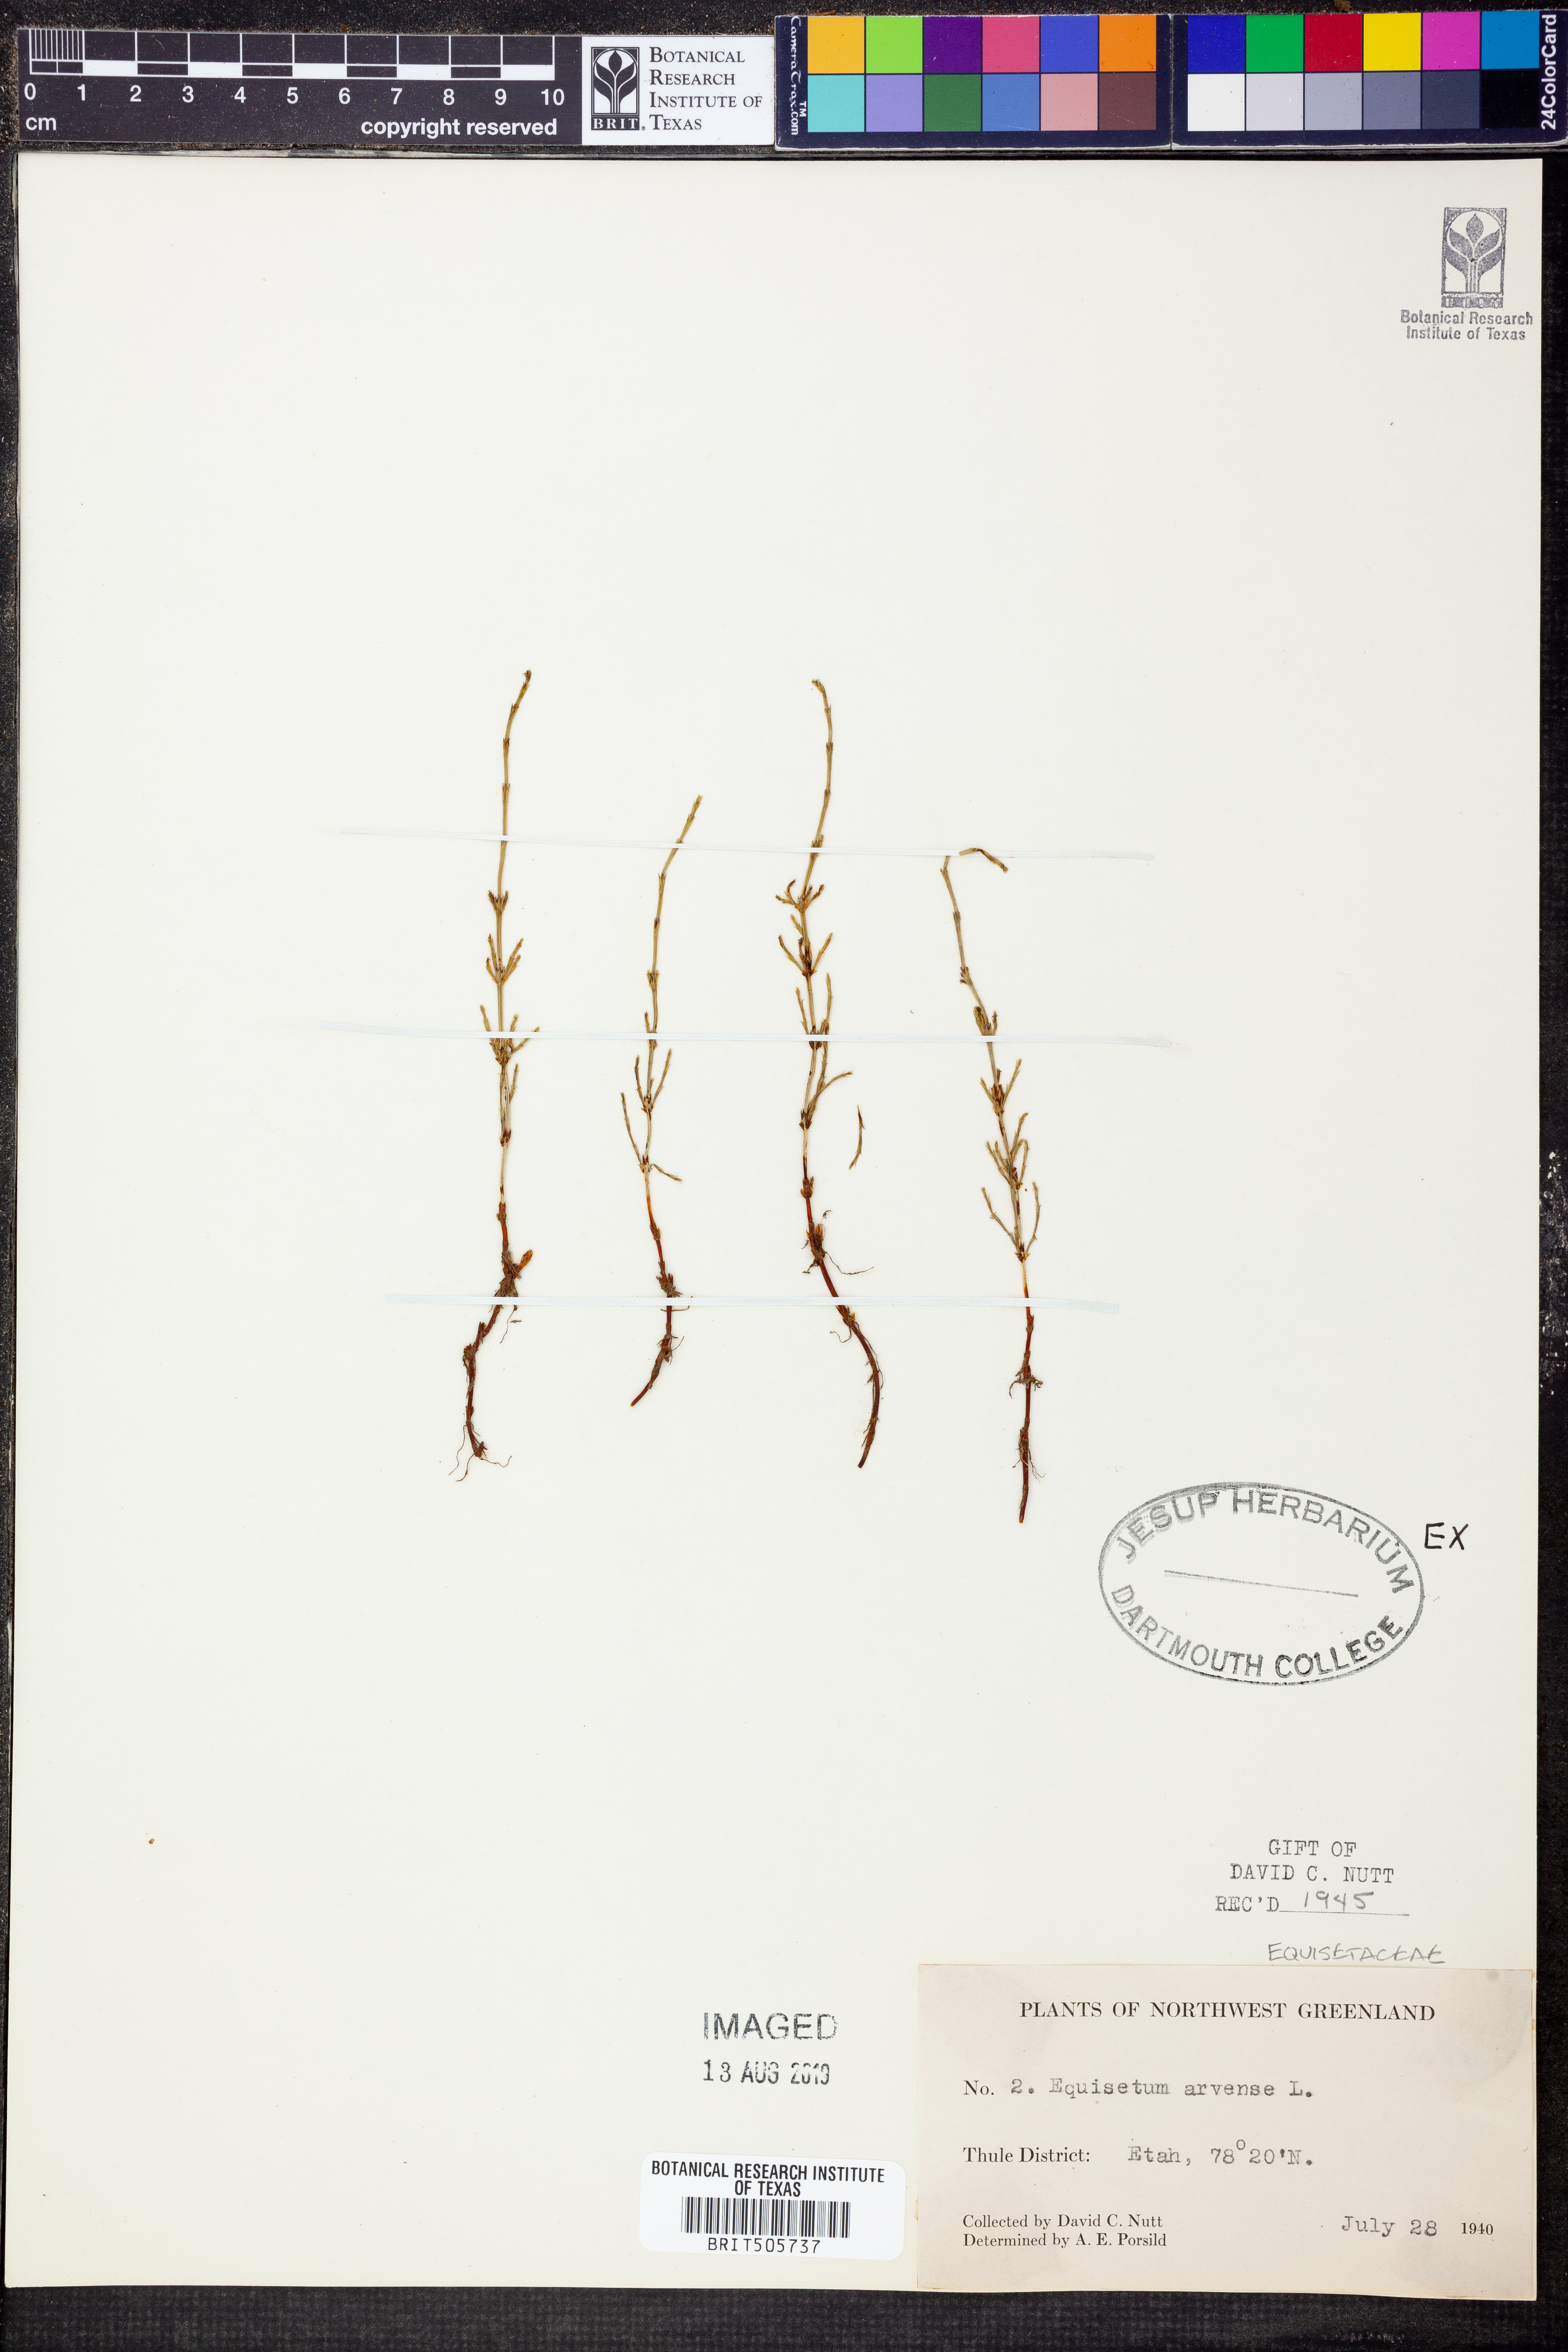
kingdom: Plantae
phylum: Tracheophyta
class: Polypodiopsida
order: Equisetales
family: Equisetaceae
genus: Equisetum
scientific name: Equisetum arvense
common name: Field horsetail
